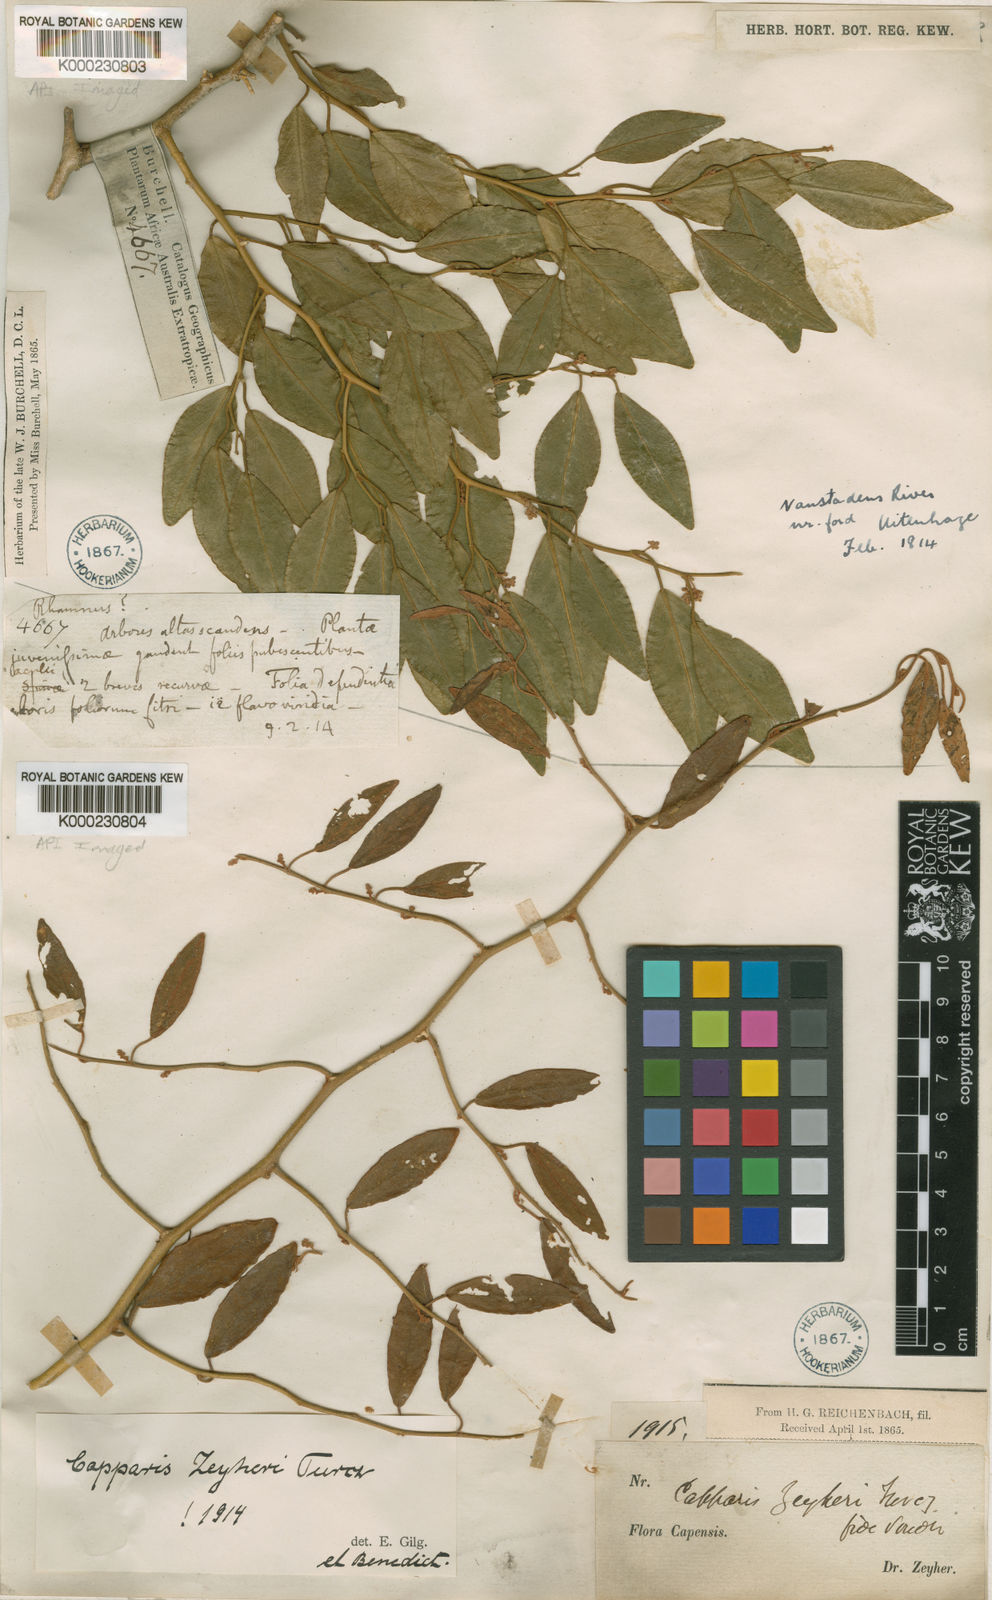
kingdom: Plantae
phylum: Tracheophyta
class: Magnoliopsida
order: Brassicales
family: Capparaceae
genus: Capparis
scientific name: Capparis fascicularis
